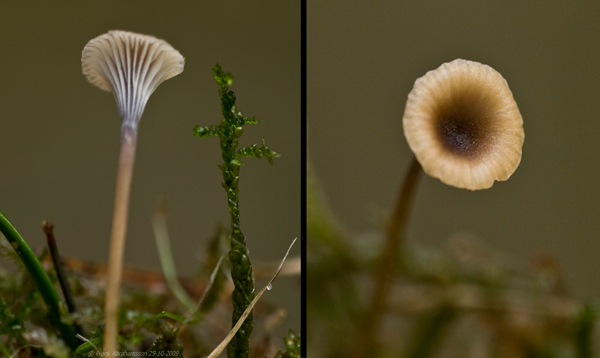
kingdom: Fungi
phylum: Basidiomycota
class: Agaricomycetes
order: Hymenochaetales
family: Rickenellaceae
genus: Rickenella
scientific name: Rickenella swartzii
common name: finstokket mosnavlehat
